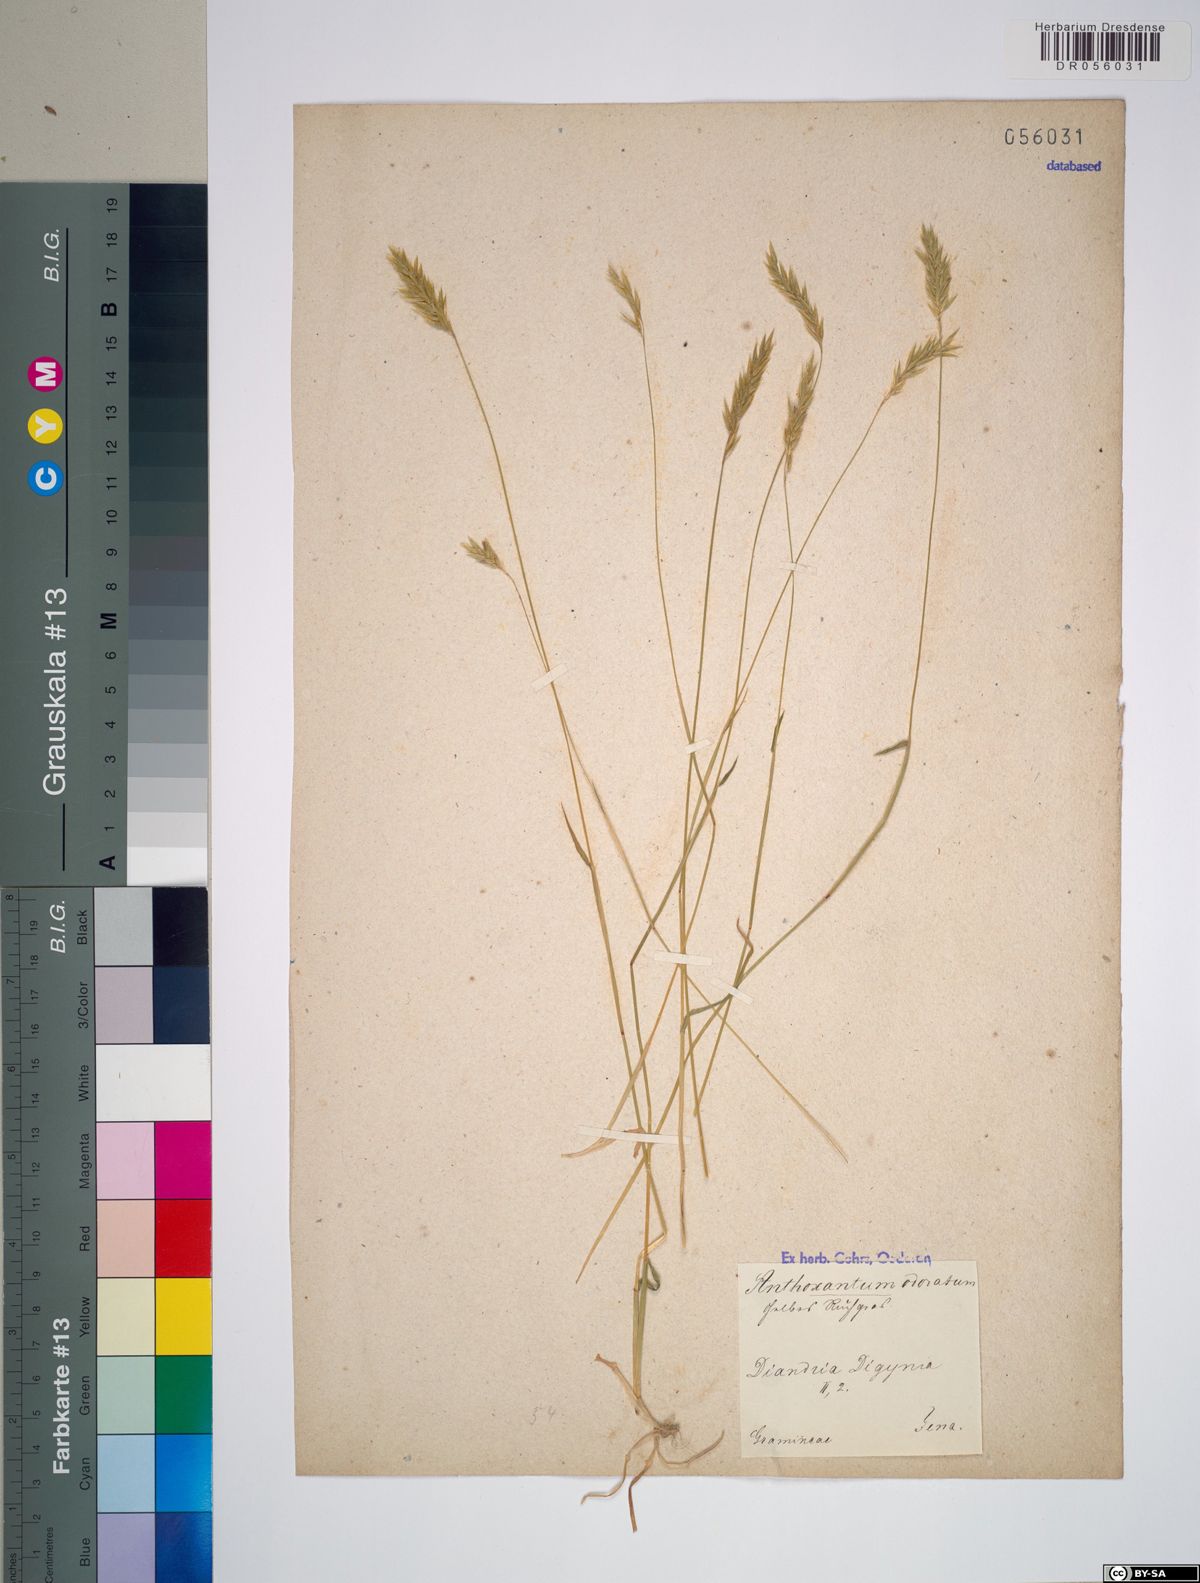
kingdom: Plantae
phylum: Tracheophyta
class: Liliopsida
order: Poales
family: Poaceae
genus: Anthoxanthum
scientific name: Anthoxanthum odoratum
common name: Sweet vernalgrass
